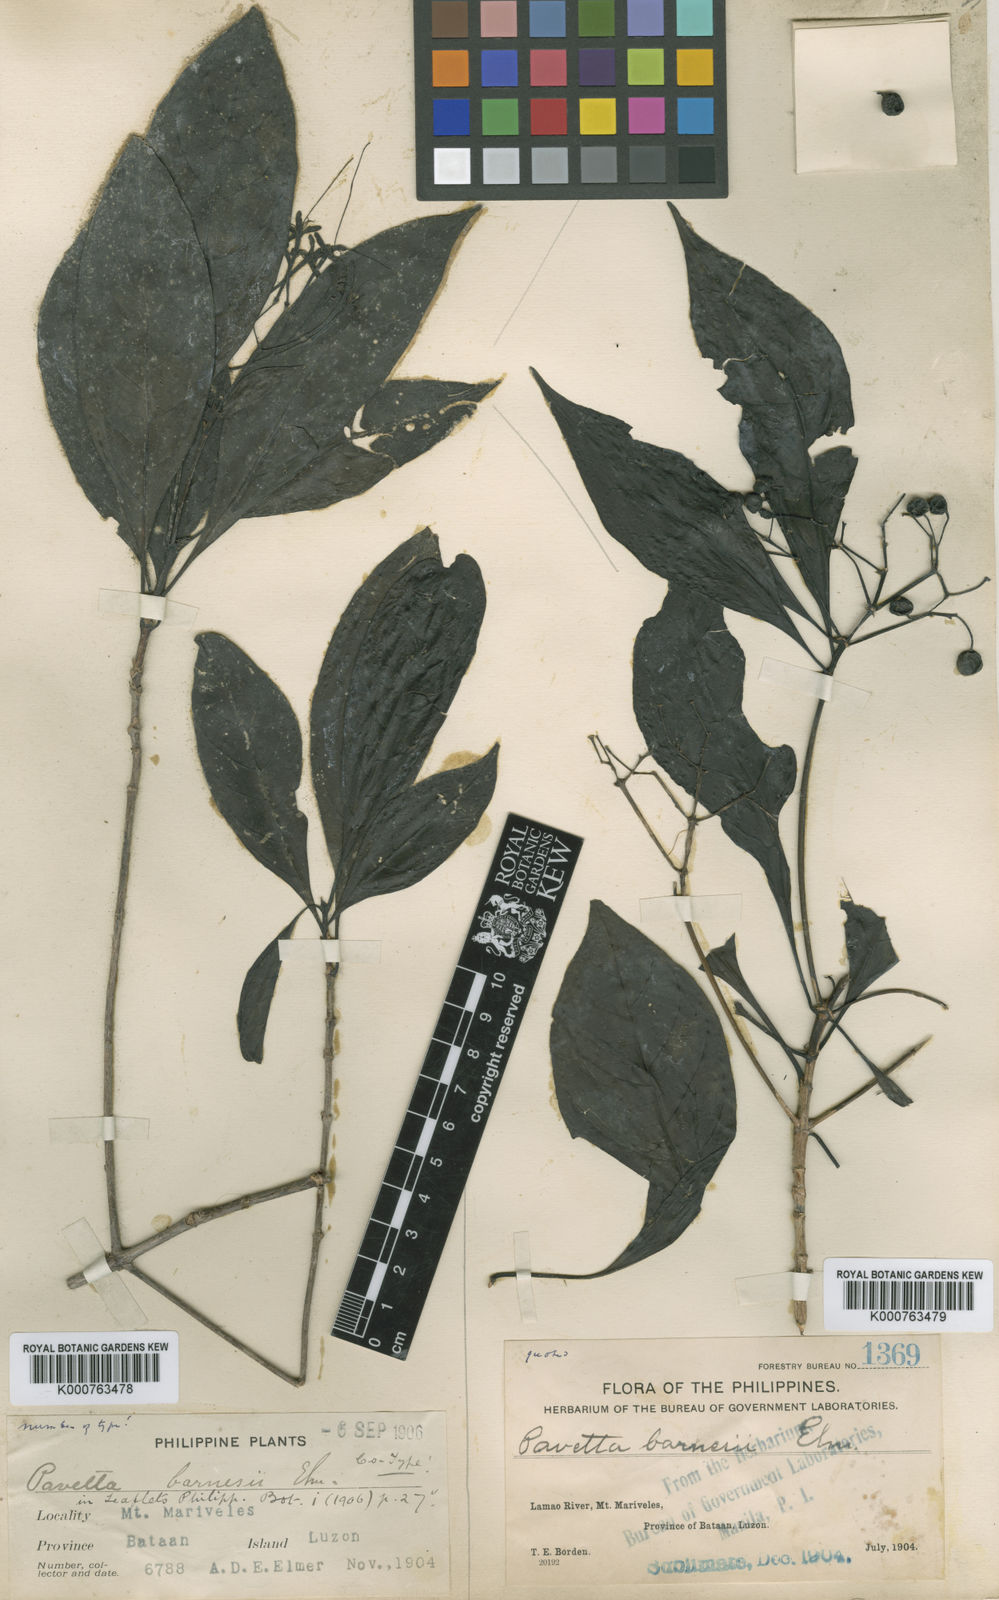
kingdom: Plantae
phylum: Tracheophyta
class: Magnoliopsida
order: Gentianales
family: Rubiaceae
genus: Pavetta
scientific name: Pavetta
